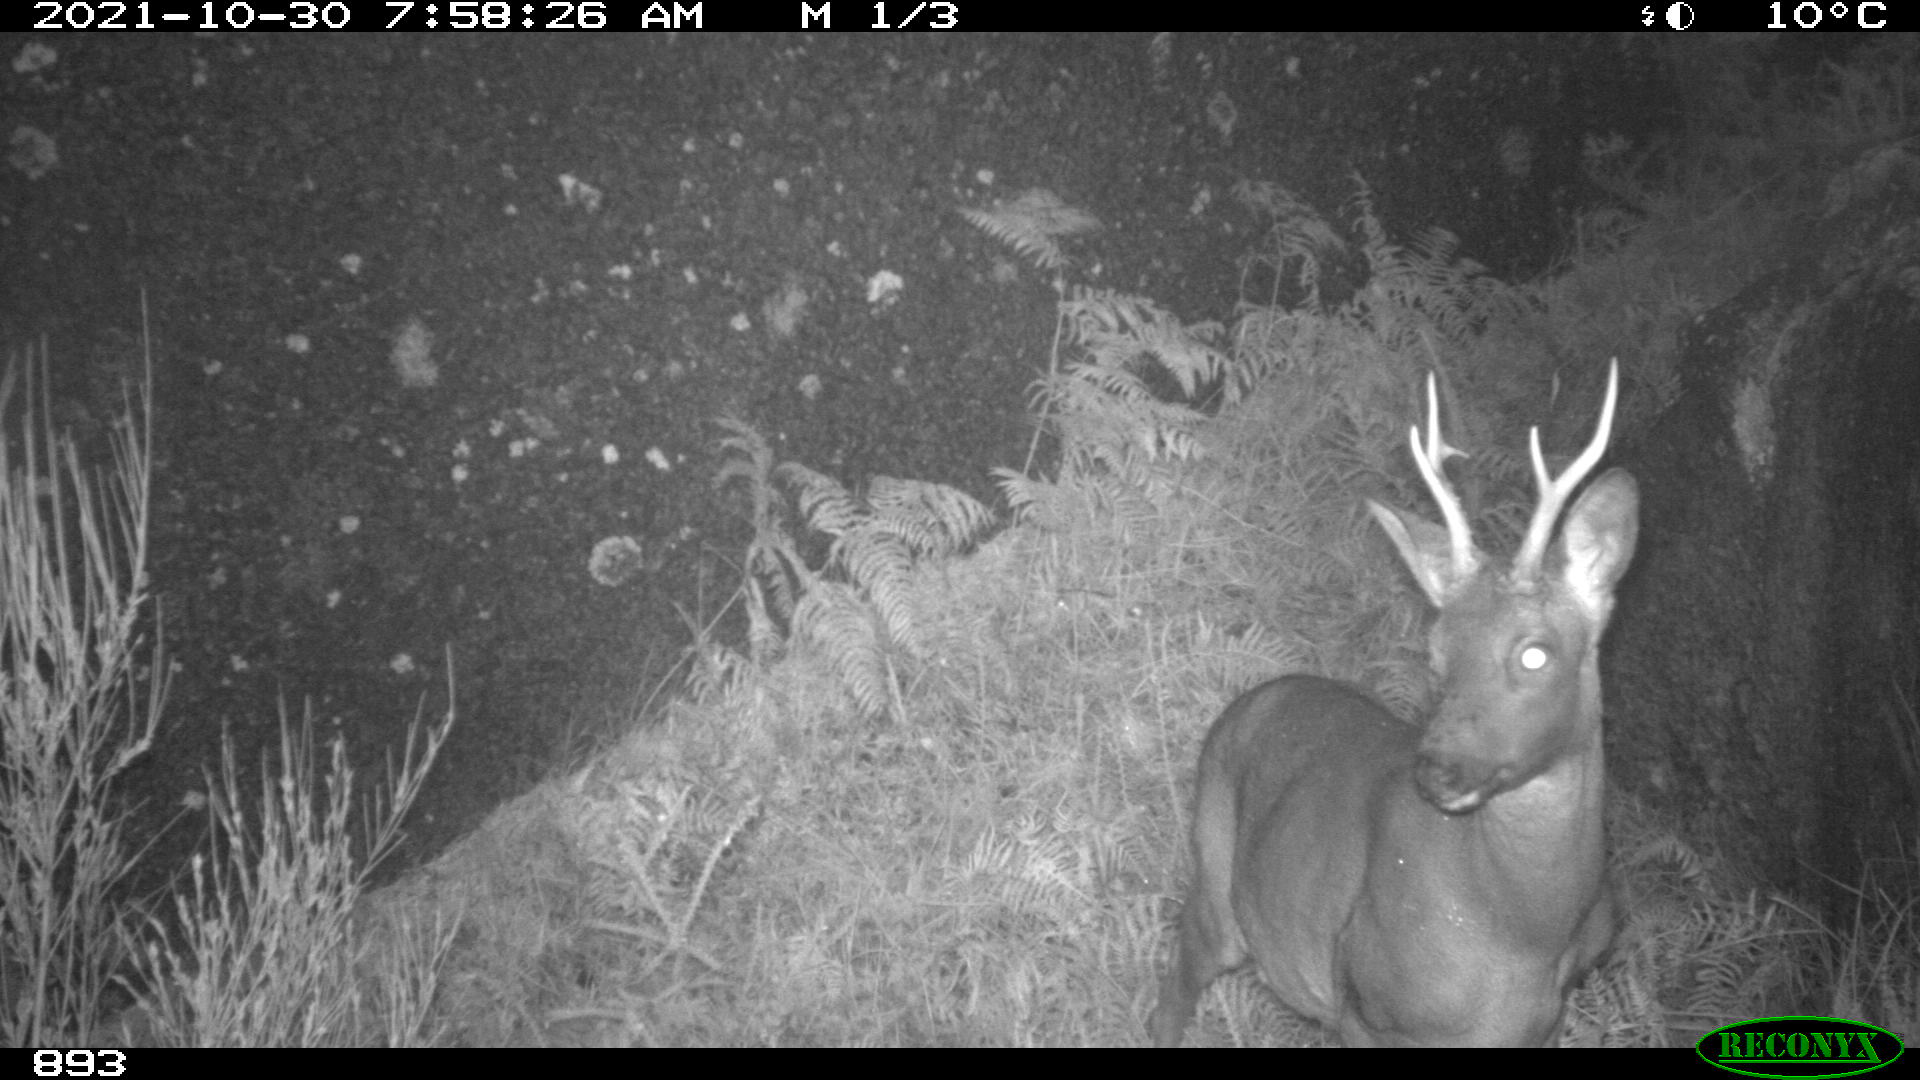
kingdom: Animalia
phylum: Chordata
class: Mammalia
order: Artiodactyla
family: Cervidae
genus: Capreolus
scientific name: Capreolus capreolus
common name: Western roe deer
